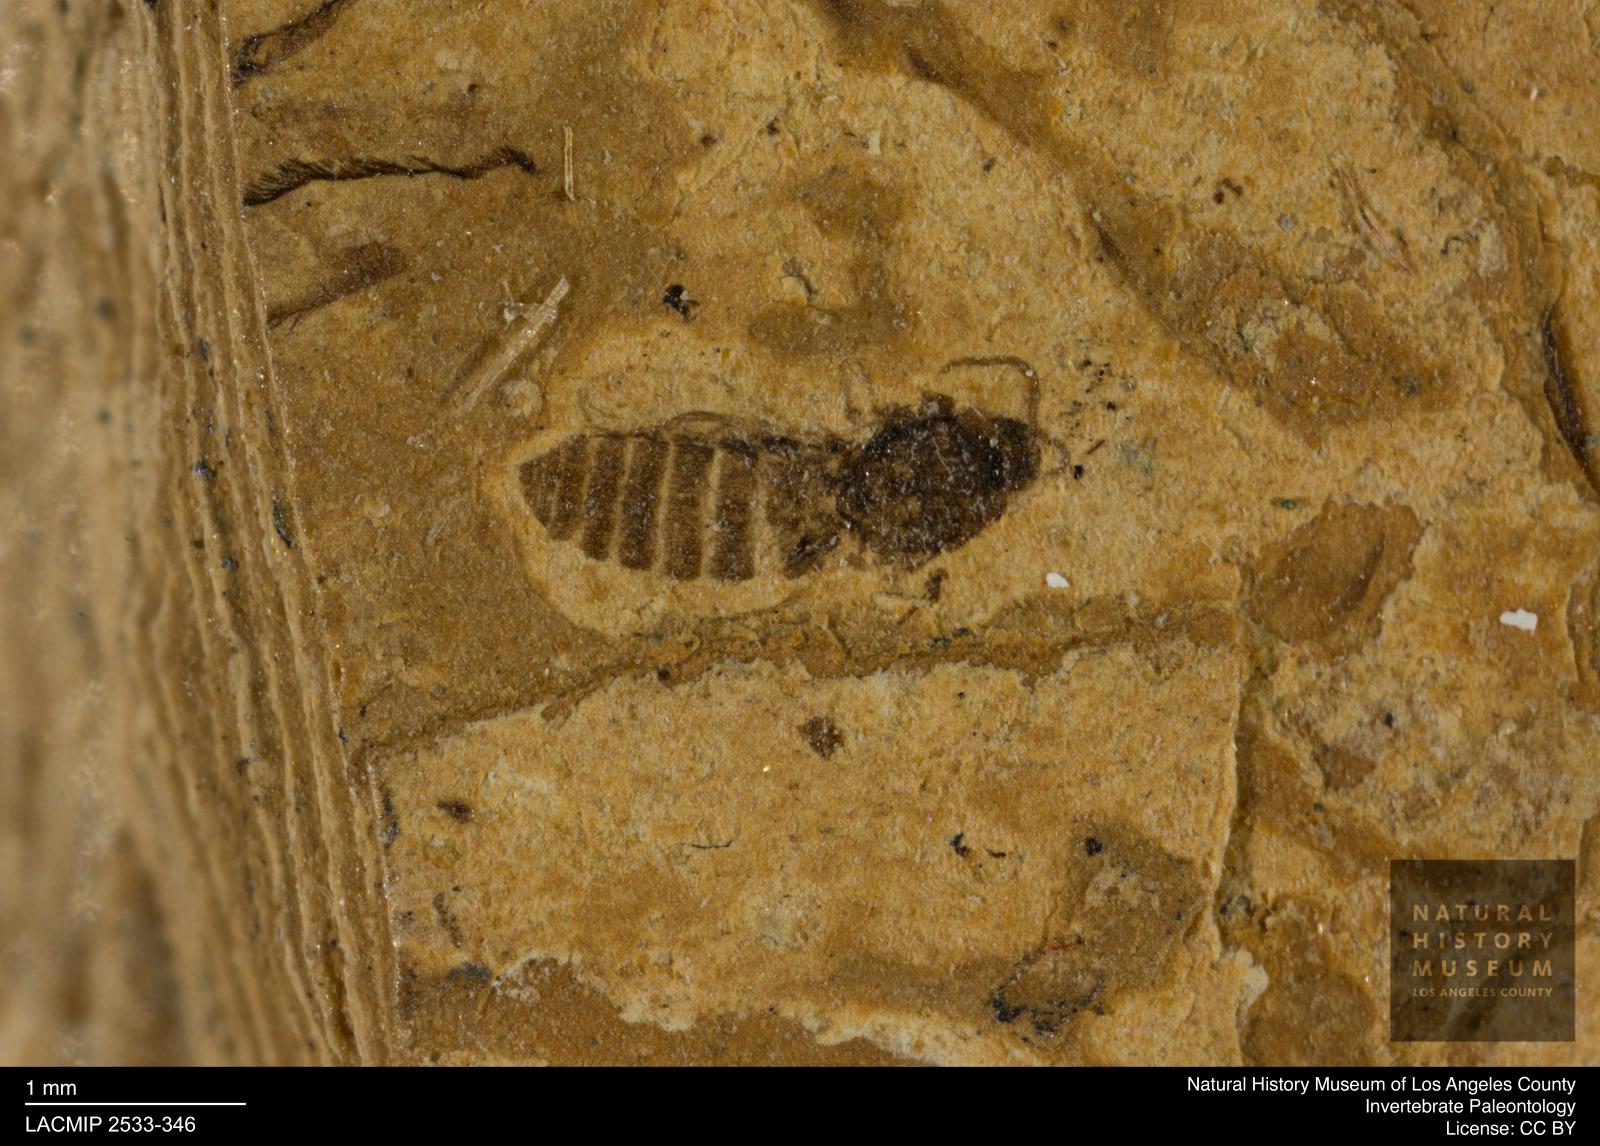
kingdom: Animalia
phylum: Arthropoda
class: Insecta
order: Diptera
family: Ceratopogonidae
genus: Culicoides
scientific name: Culicoides austerus
